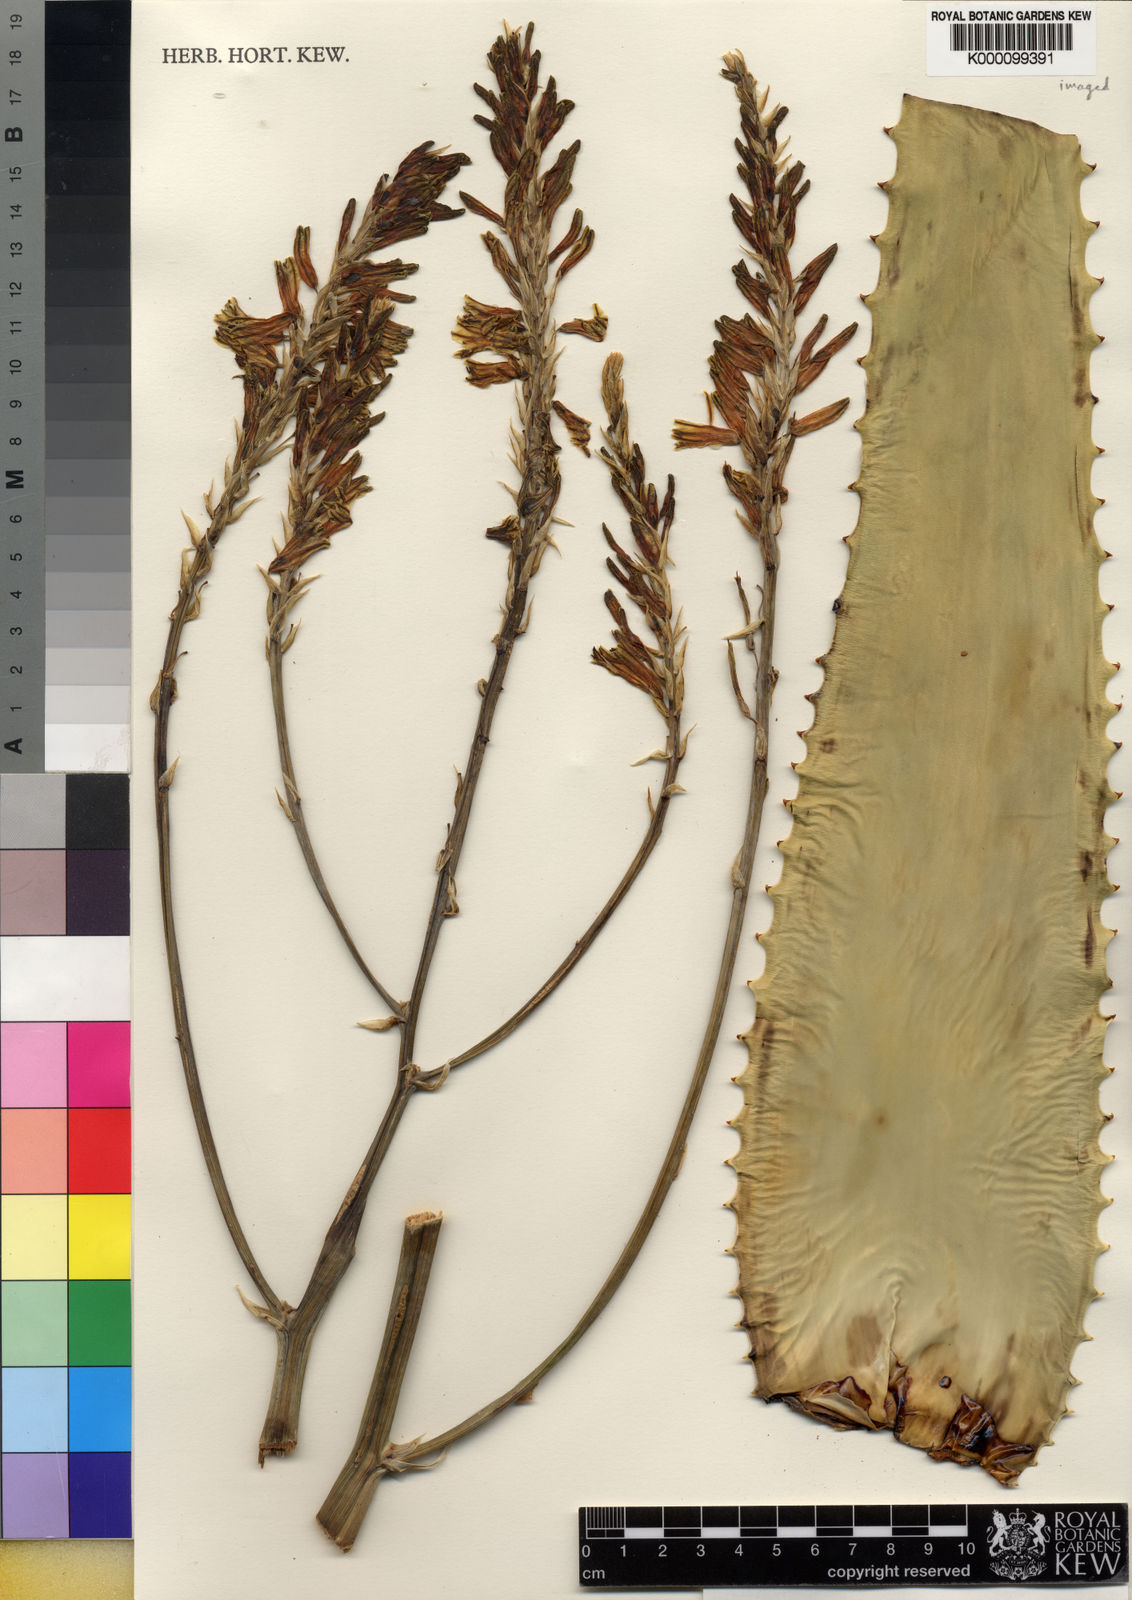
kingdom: Plantae
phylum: Tracheophyta
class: Liliopsida
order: Asparagales
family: Asphodelaceae
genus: Aloe
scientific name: Aloe archeri
